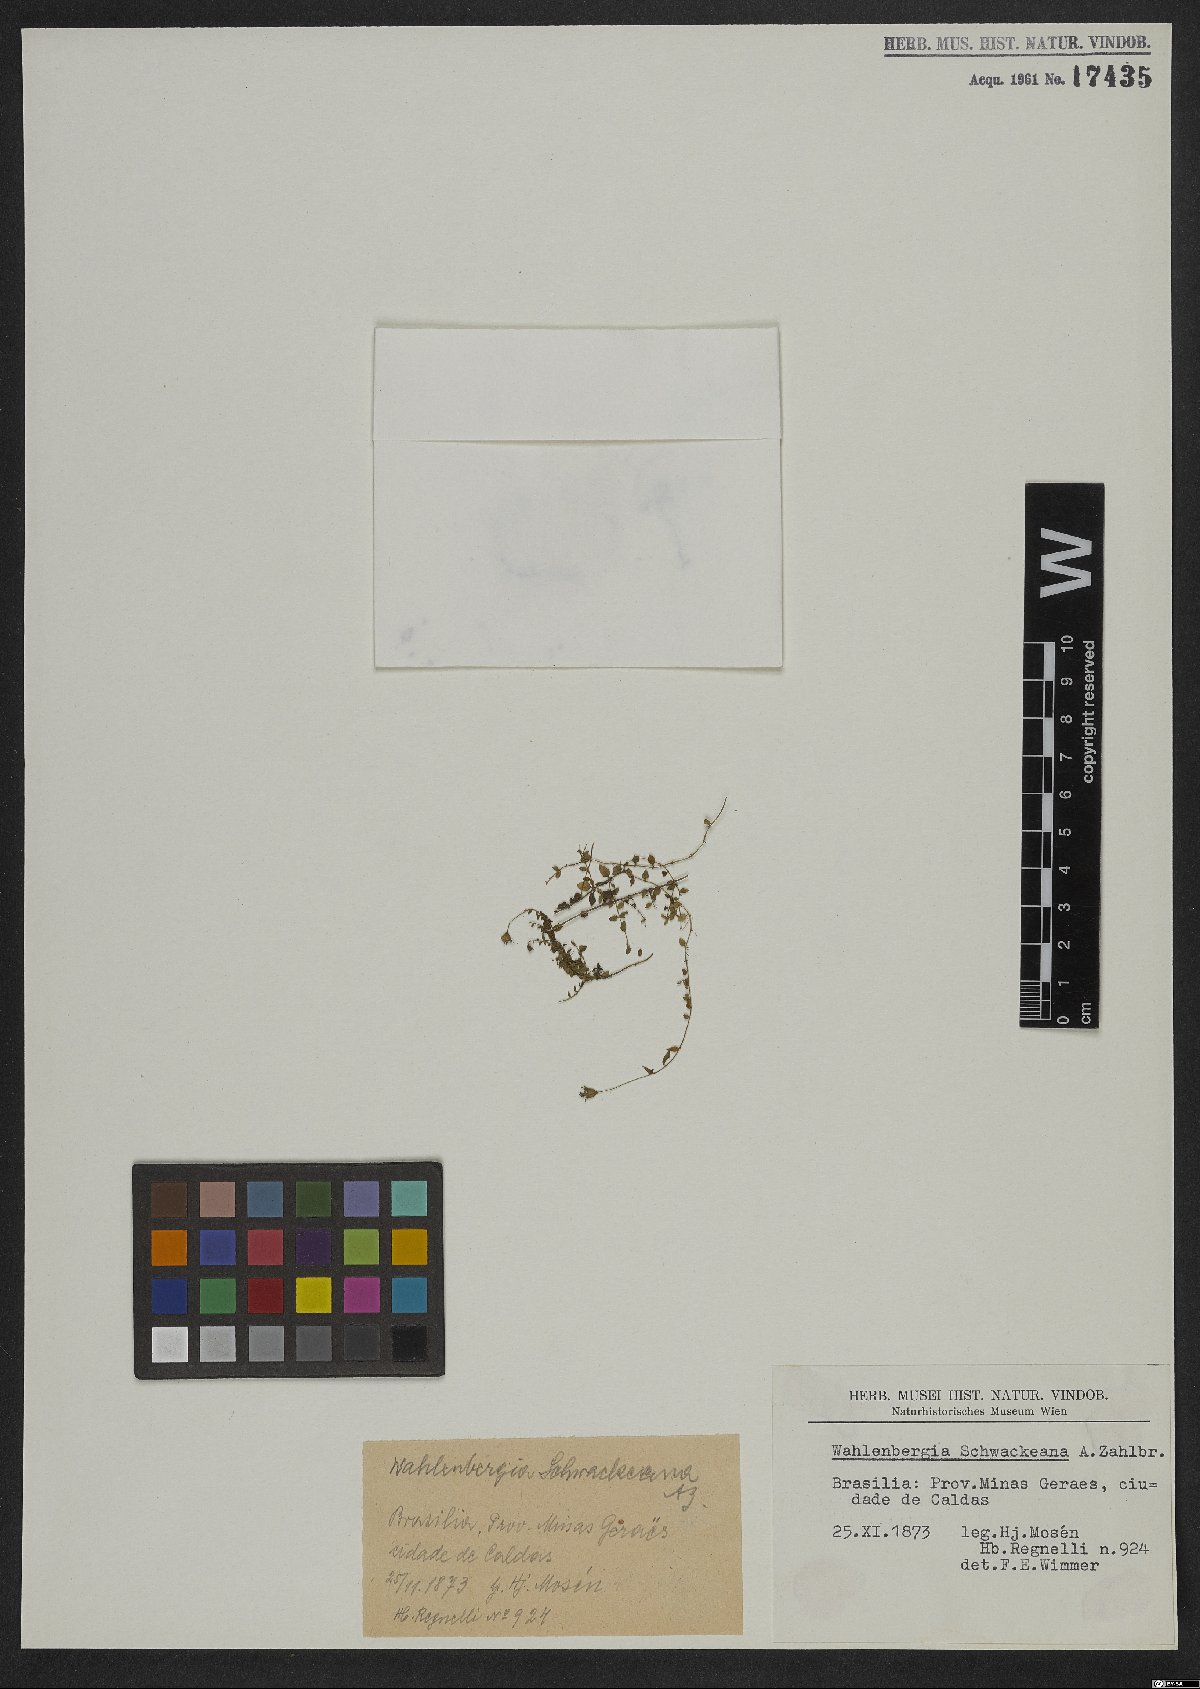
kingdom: Plantae
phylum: Tracheophyta
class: Magnoliopsida
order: Asterales
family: Campanulaceae
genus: Wahlenbergia
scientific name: Wahlenbergia schwackeana
